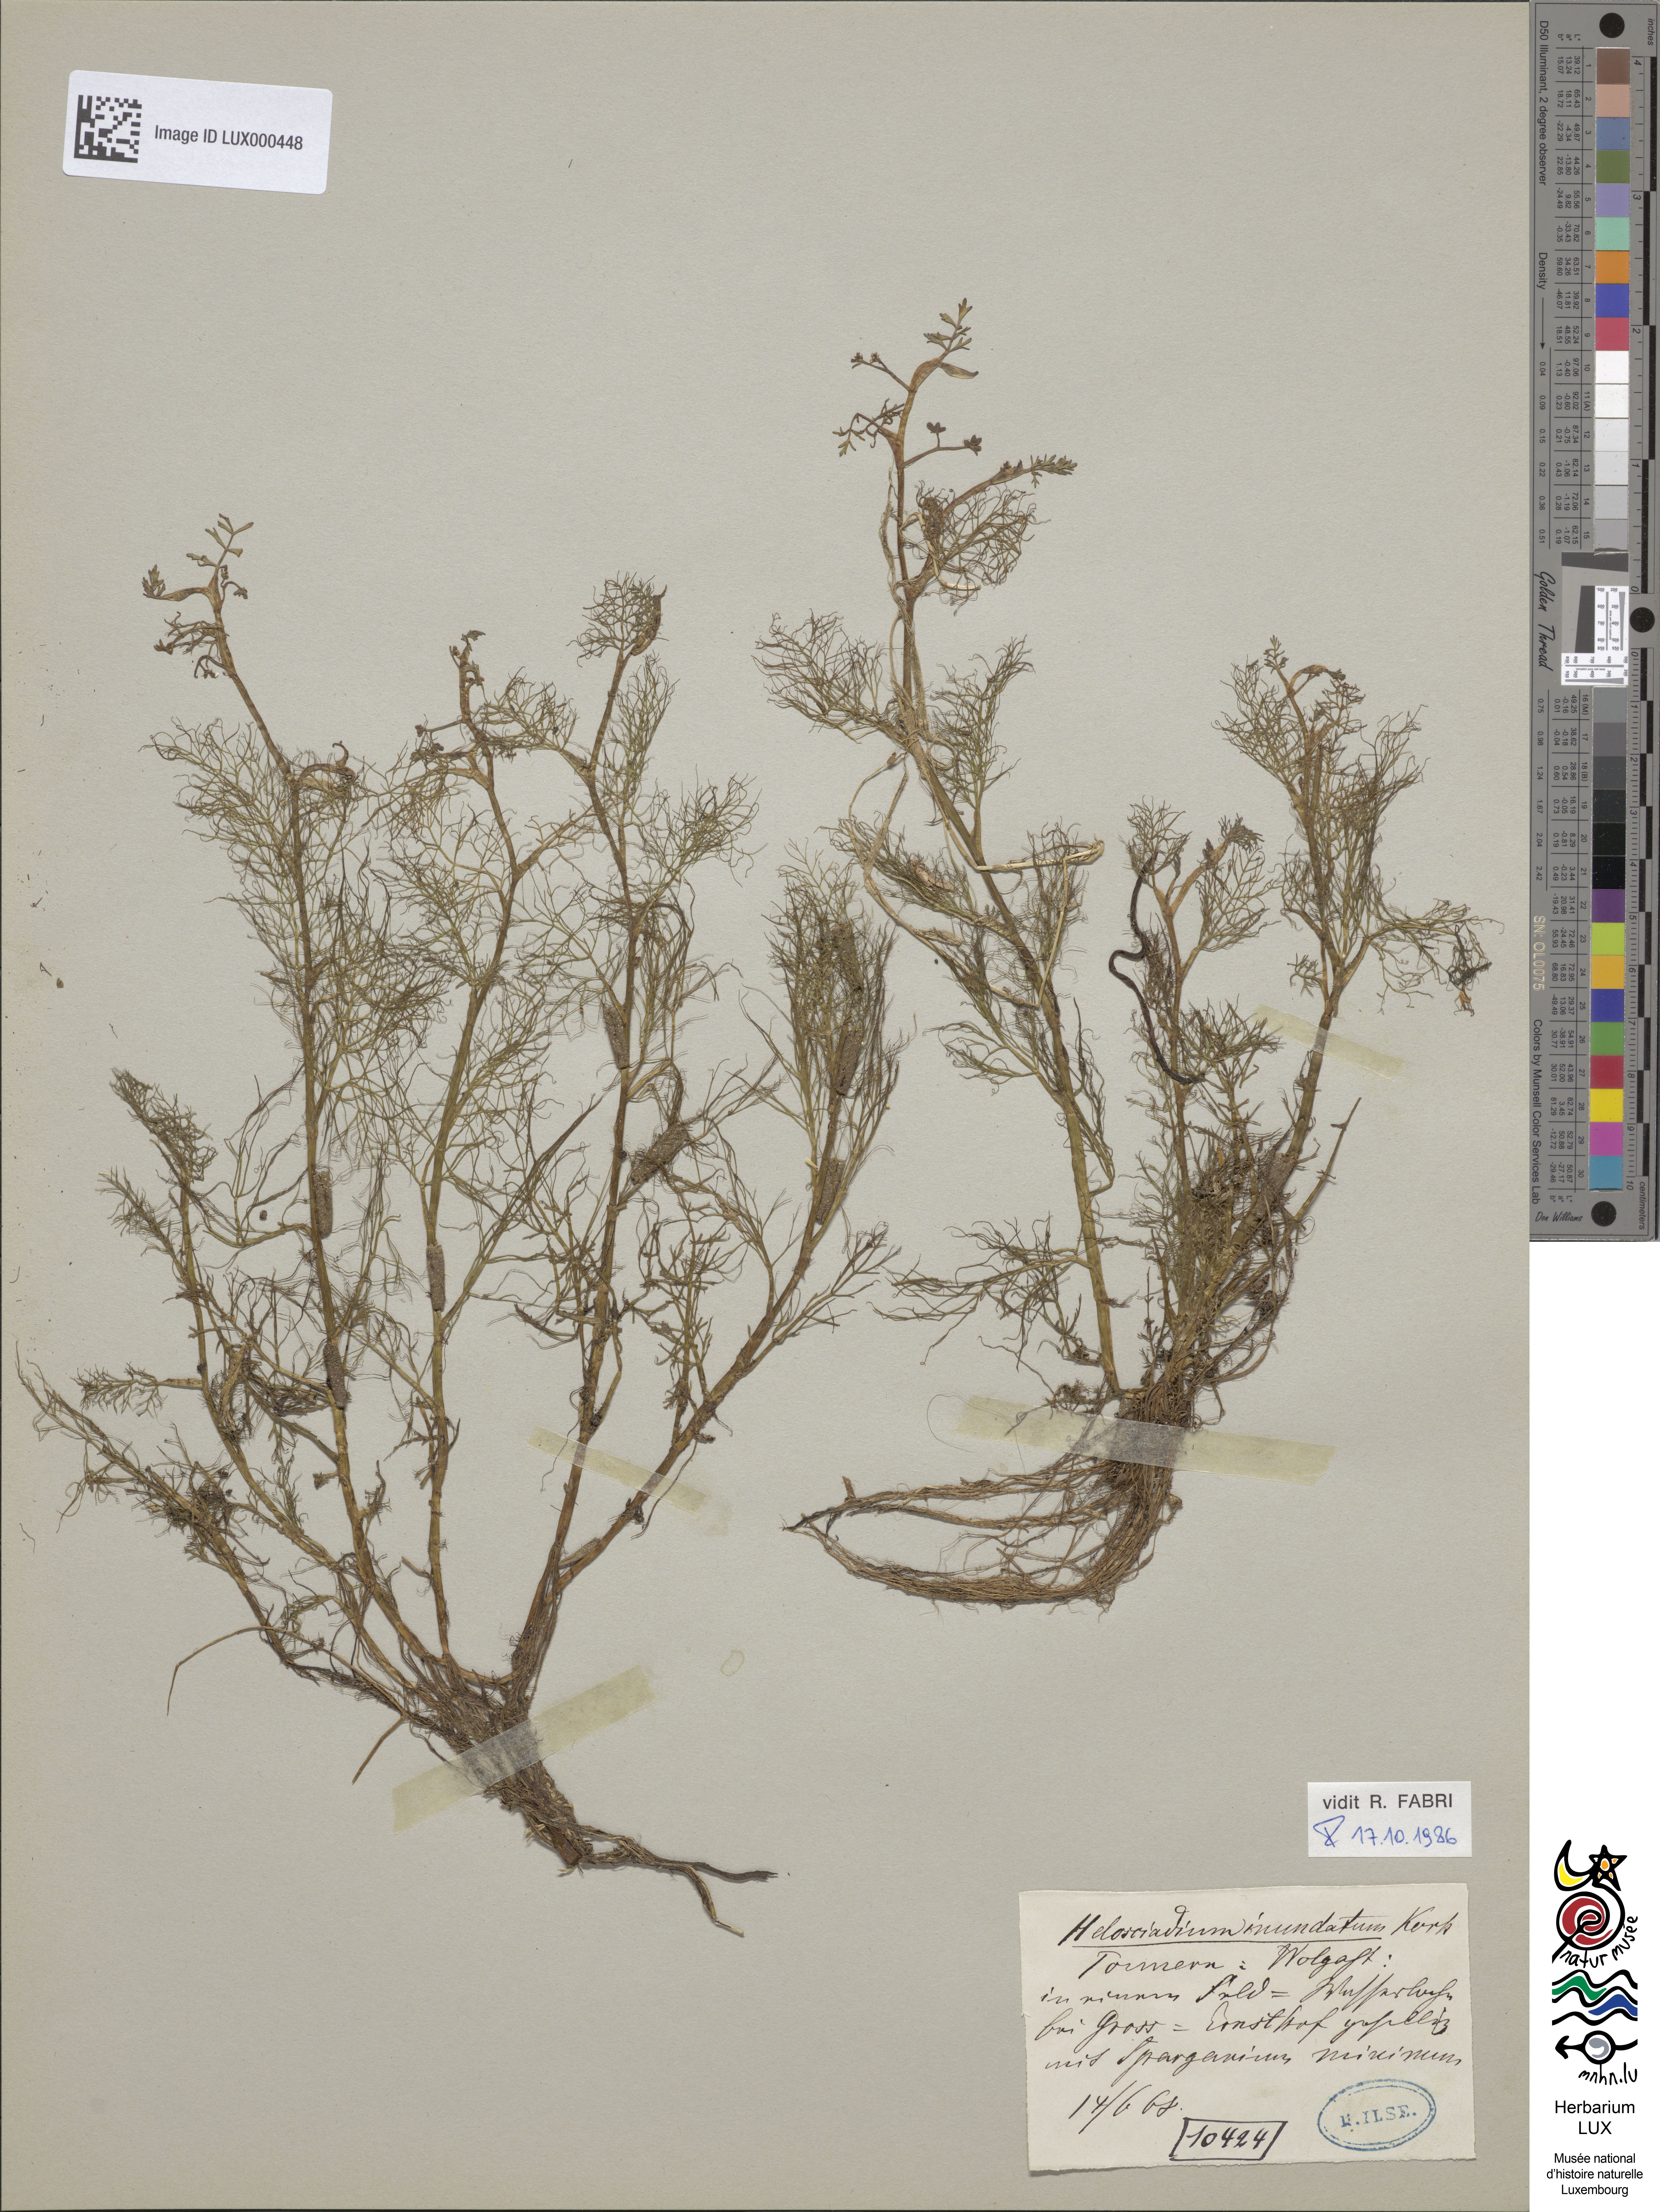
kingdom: Plantae
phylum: Tracheophyta
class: Magnoliopsida
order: Apiales
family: Apiaceae
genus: Helosciadium
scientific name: Helosciadium inundatum
